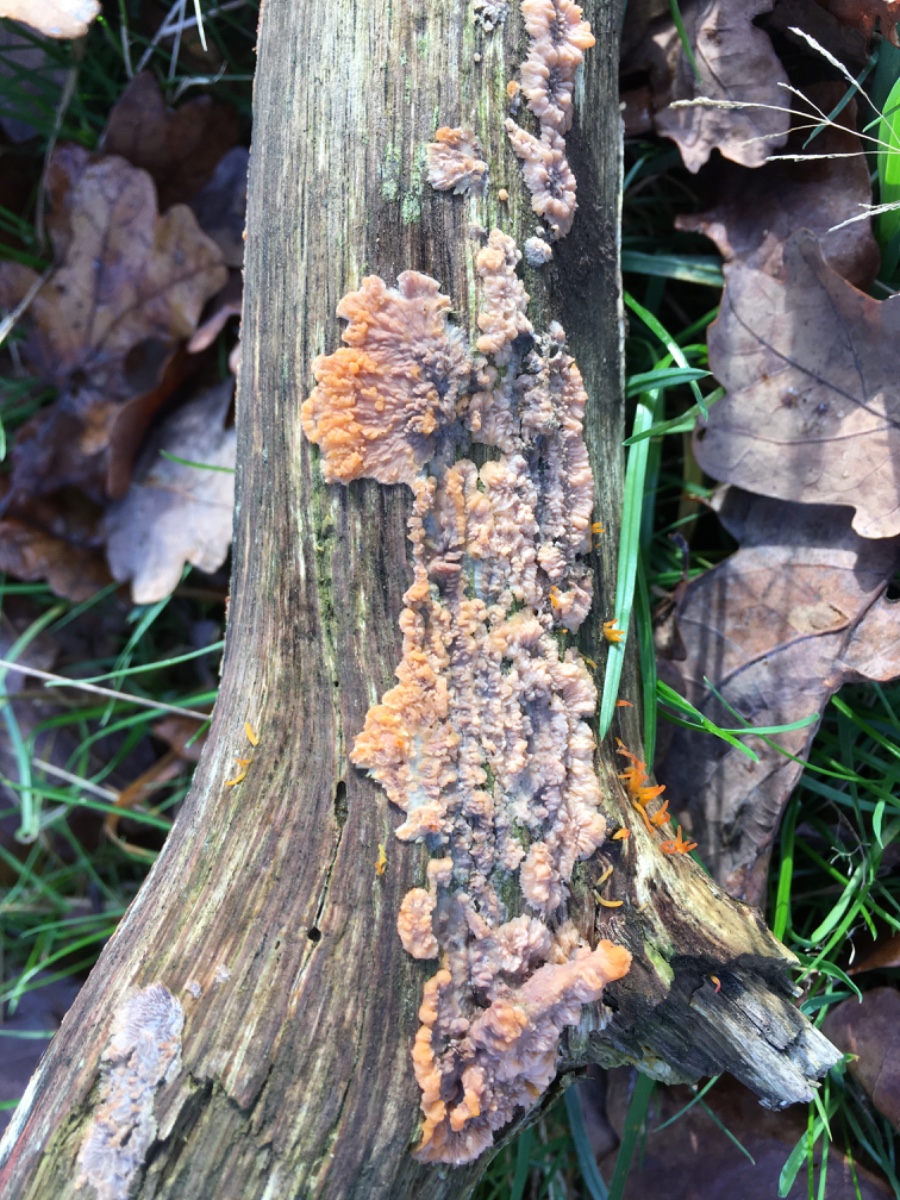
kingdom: Fungi
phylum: Basidiomycota
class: Agaricomycetes
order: Polyporales
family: Meruliaceae
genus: Phlebia
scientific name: Phlebia radiata
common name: stråle-åresvamp
